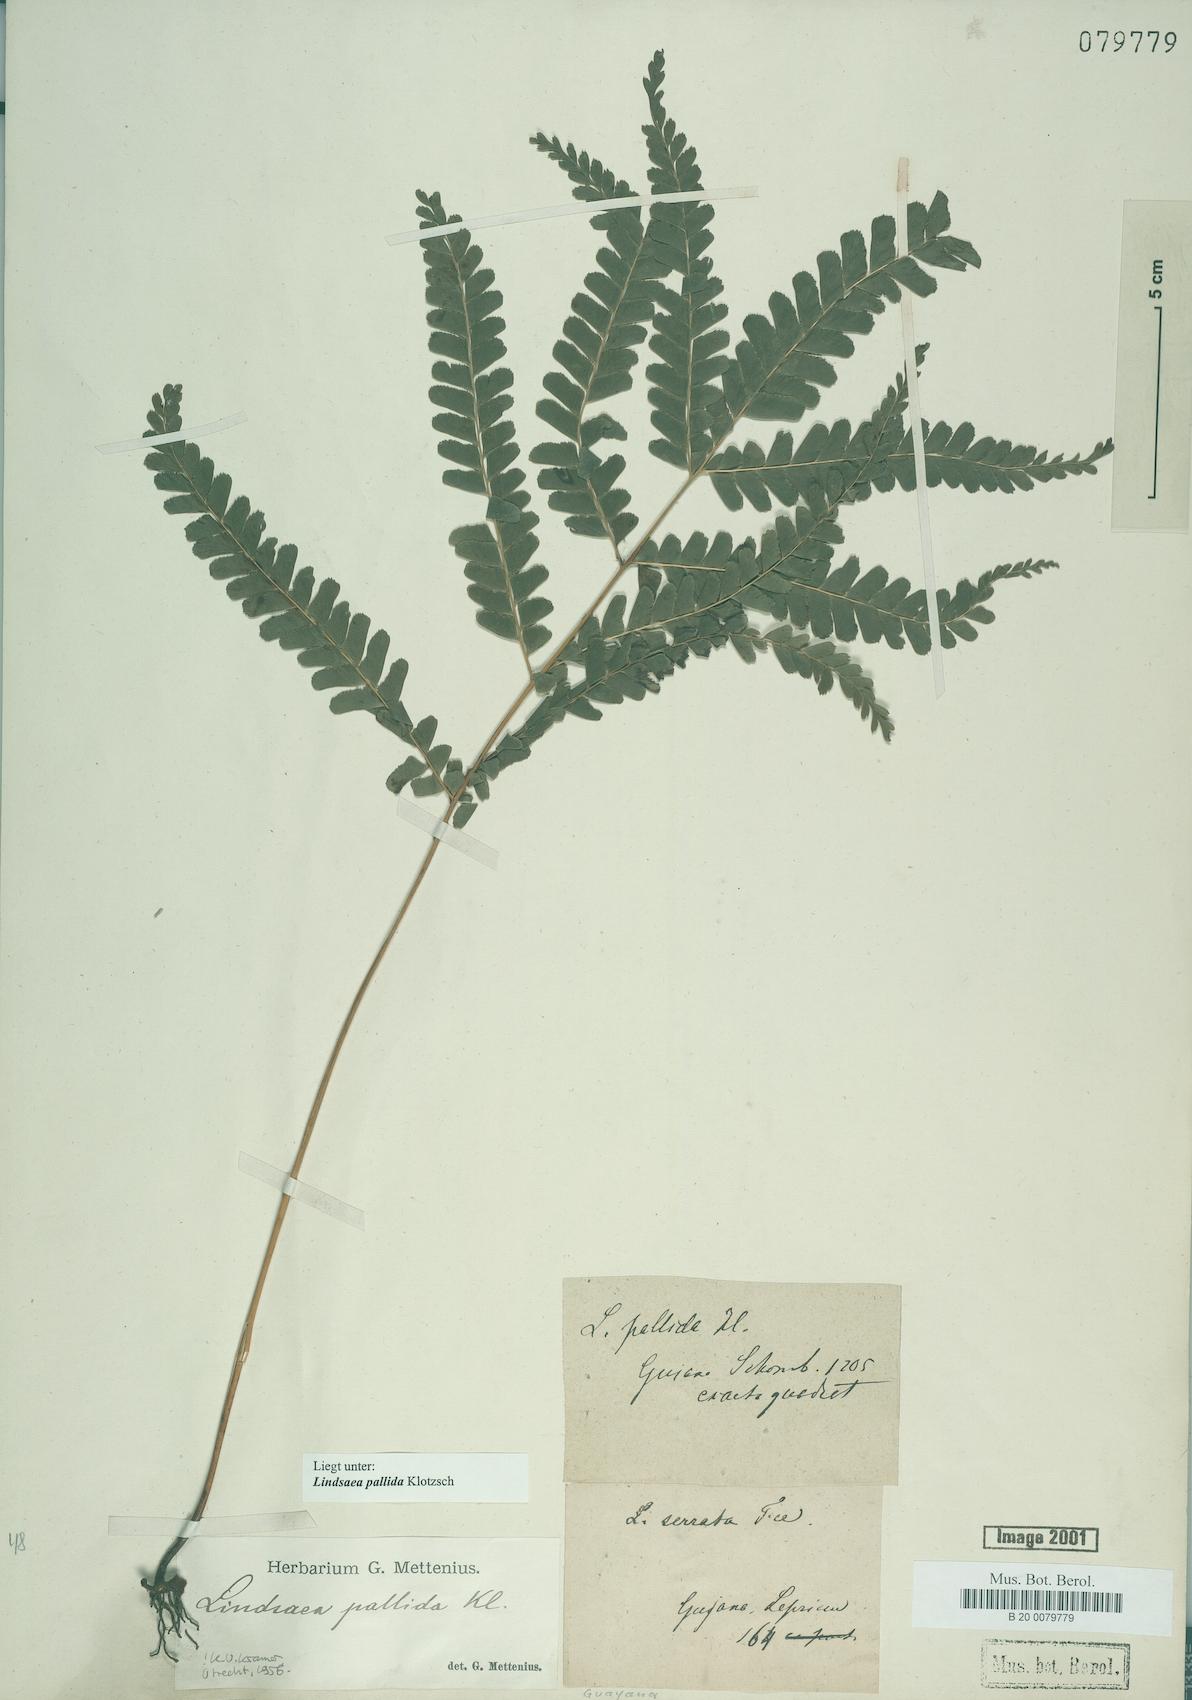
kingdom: Plantae
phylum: Tracheophyta
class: Polypodiopsida
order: Polypodiales
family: Lindsaeaceae
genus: Lindsaea
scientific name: Lindsaea pallida
